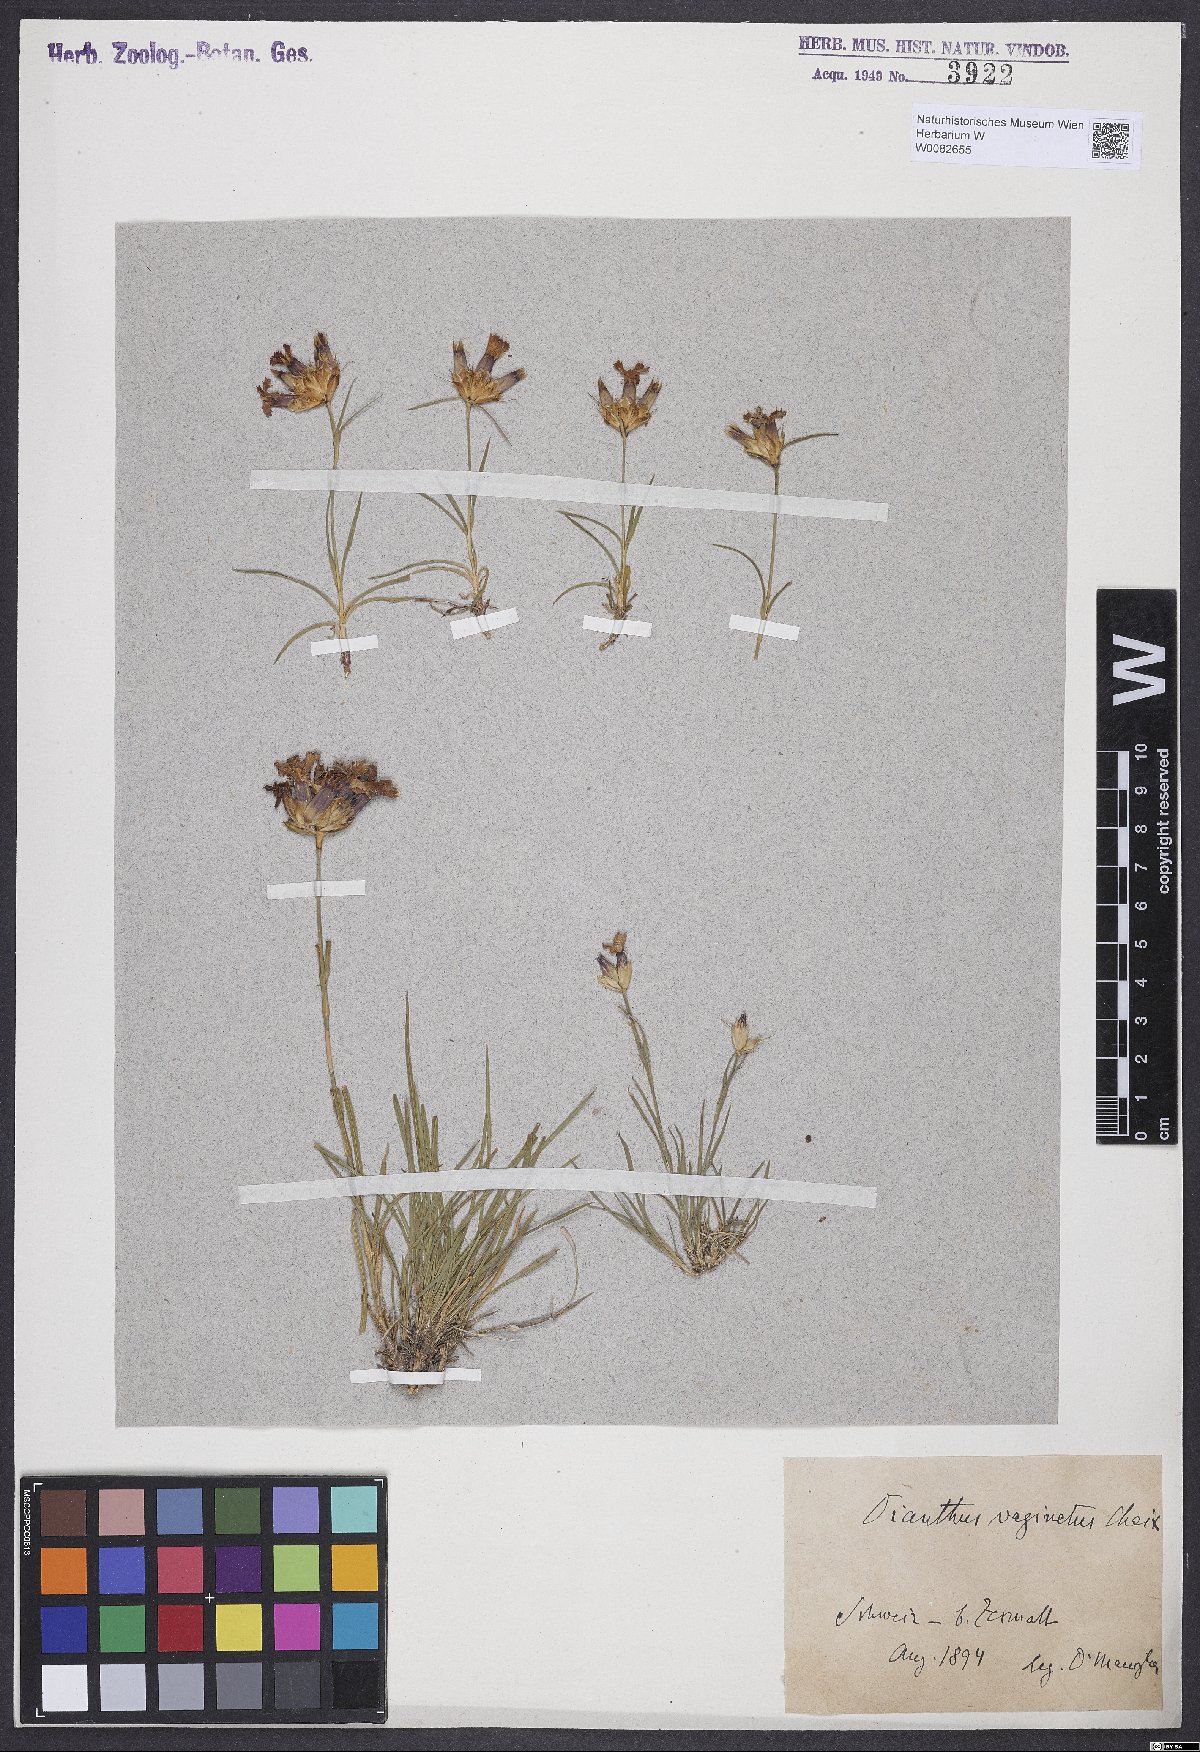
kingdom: Plantae
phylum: Tracheophyta
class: Magnoliopsida
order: Caryophyllales
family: Caryophyllaceae
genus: Dianthus
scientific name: Dianthus carthusianorum
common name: Carthusian pink
